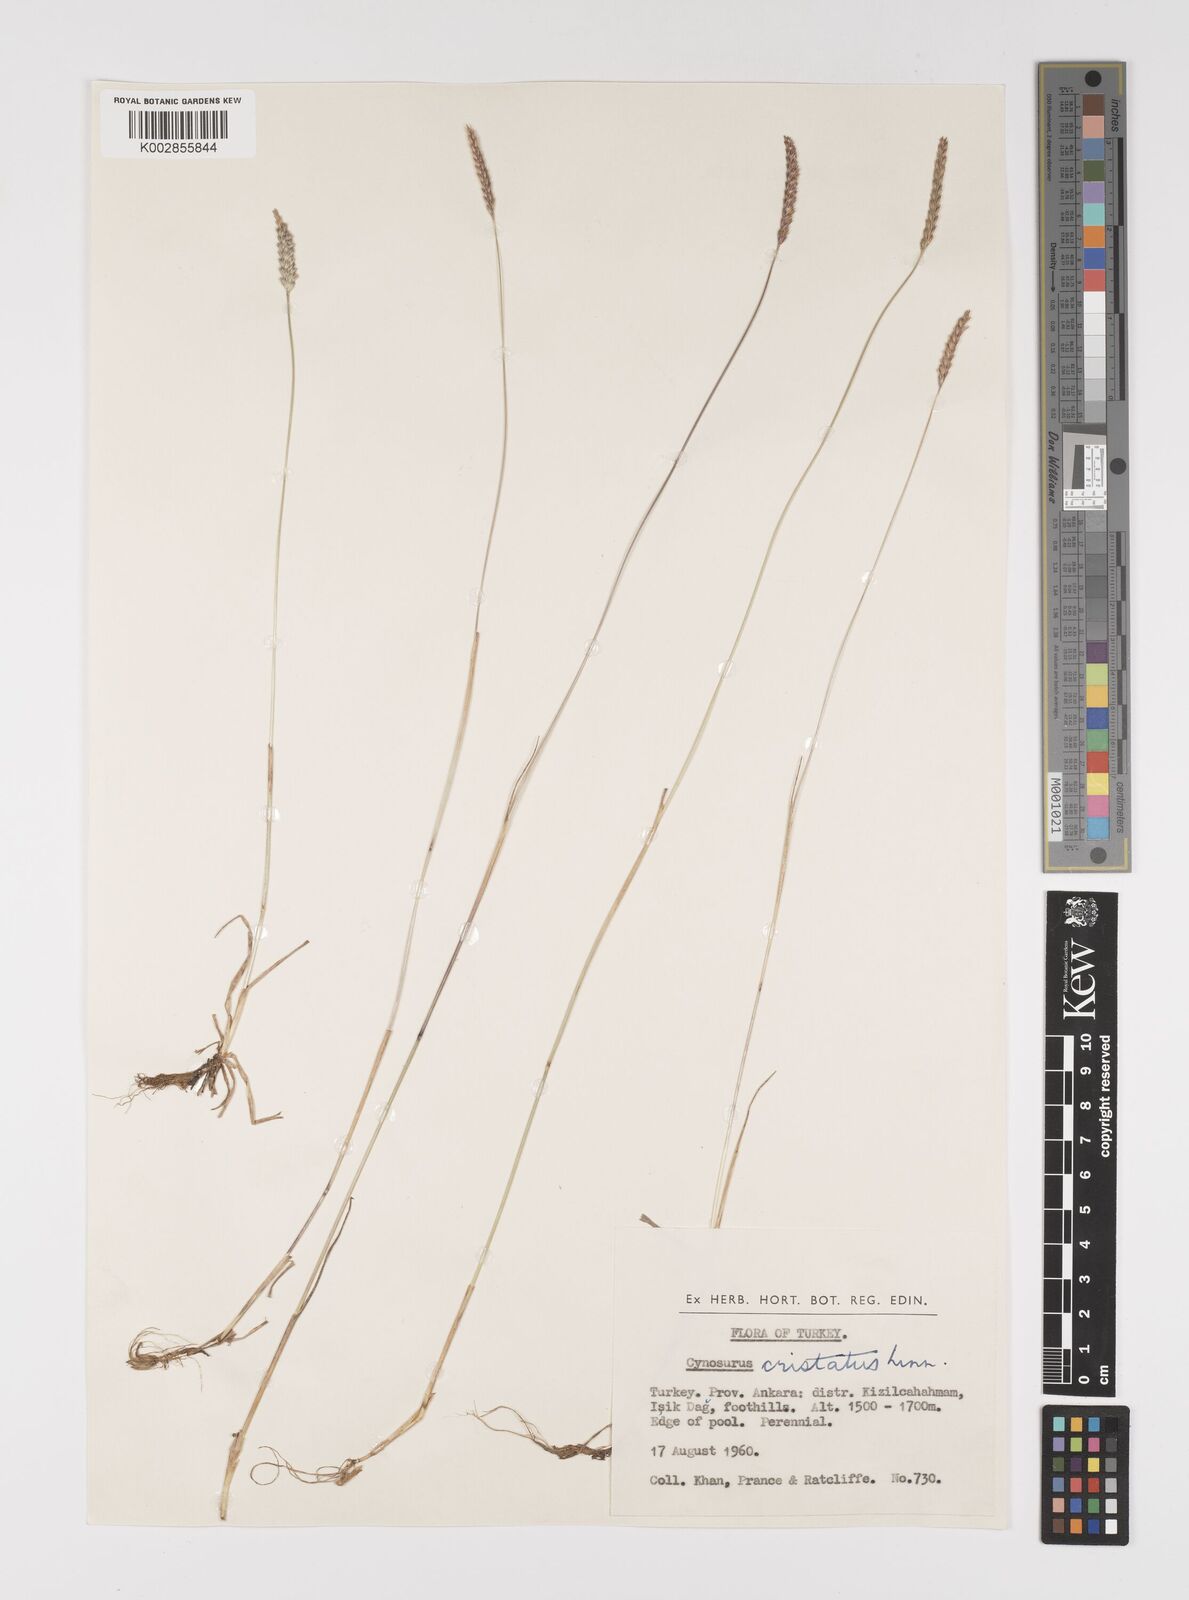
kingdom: Plantae
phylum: Tracheophyta
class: Liliopsida
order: Poales
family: Poaceae
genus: Cynosurus
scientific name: Cynosurus cristatus
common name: Crested dog's-tail
